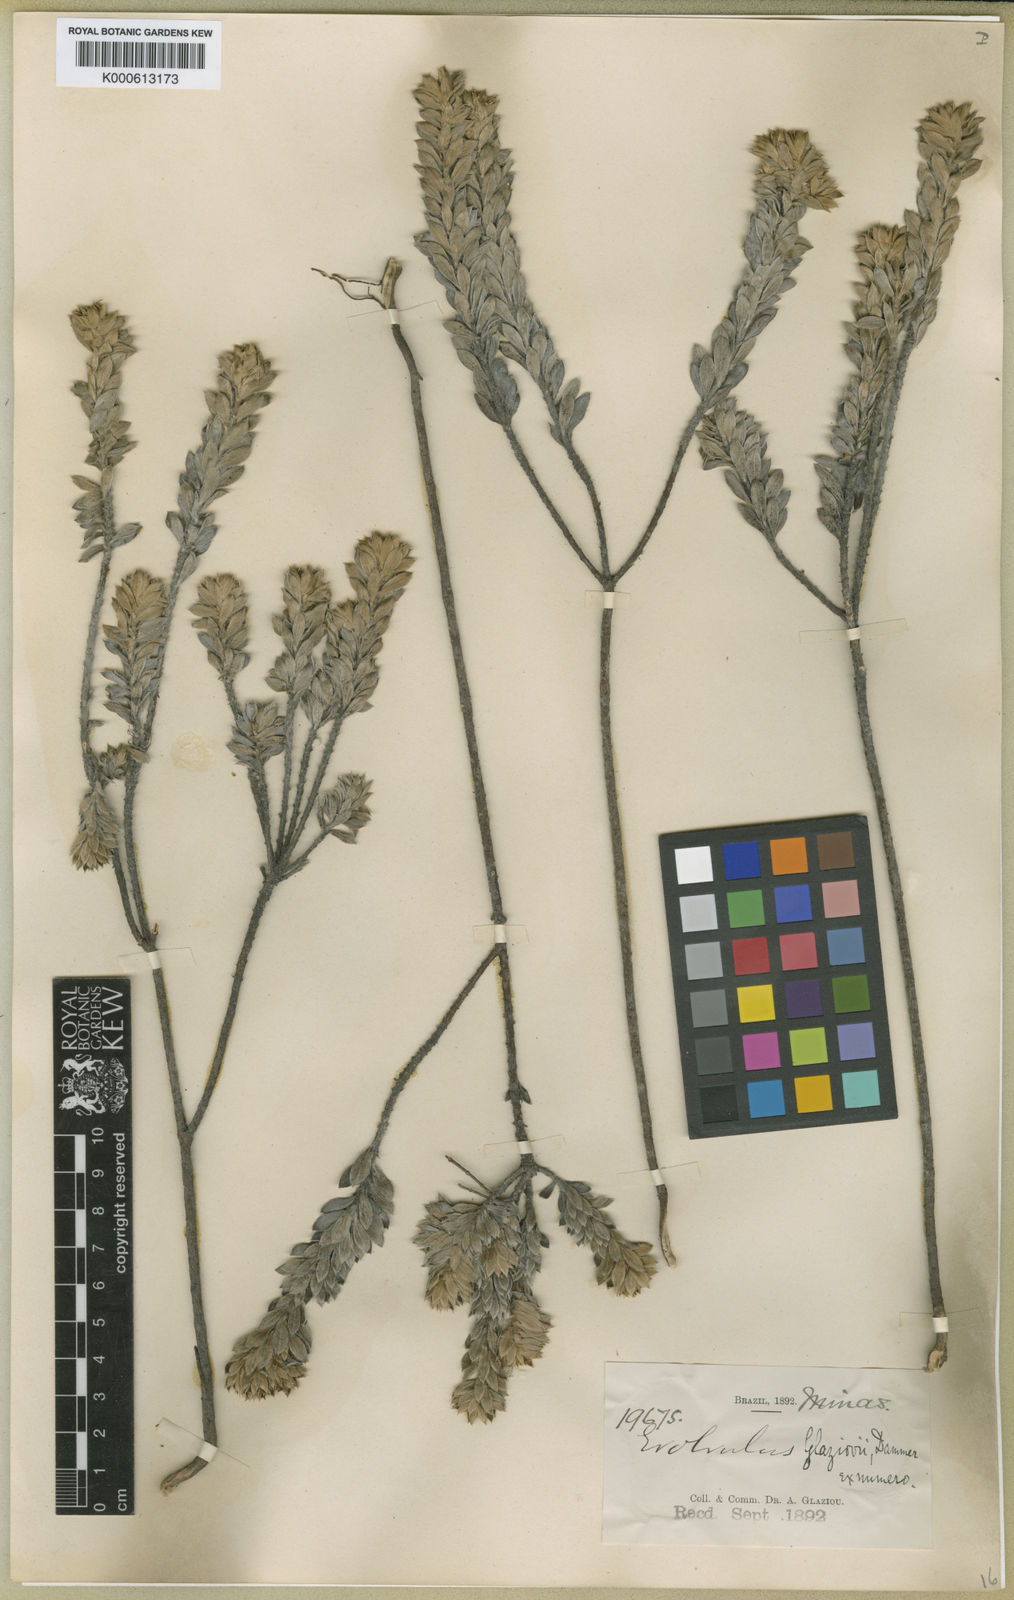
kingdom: Plantae
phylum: Tracheophyta
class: Magnoliopsida
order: Solanales
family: Convolvulaceae
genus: Evolvulus
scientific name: Evolvulus glaziovii
